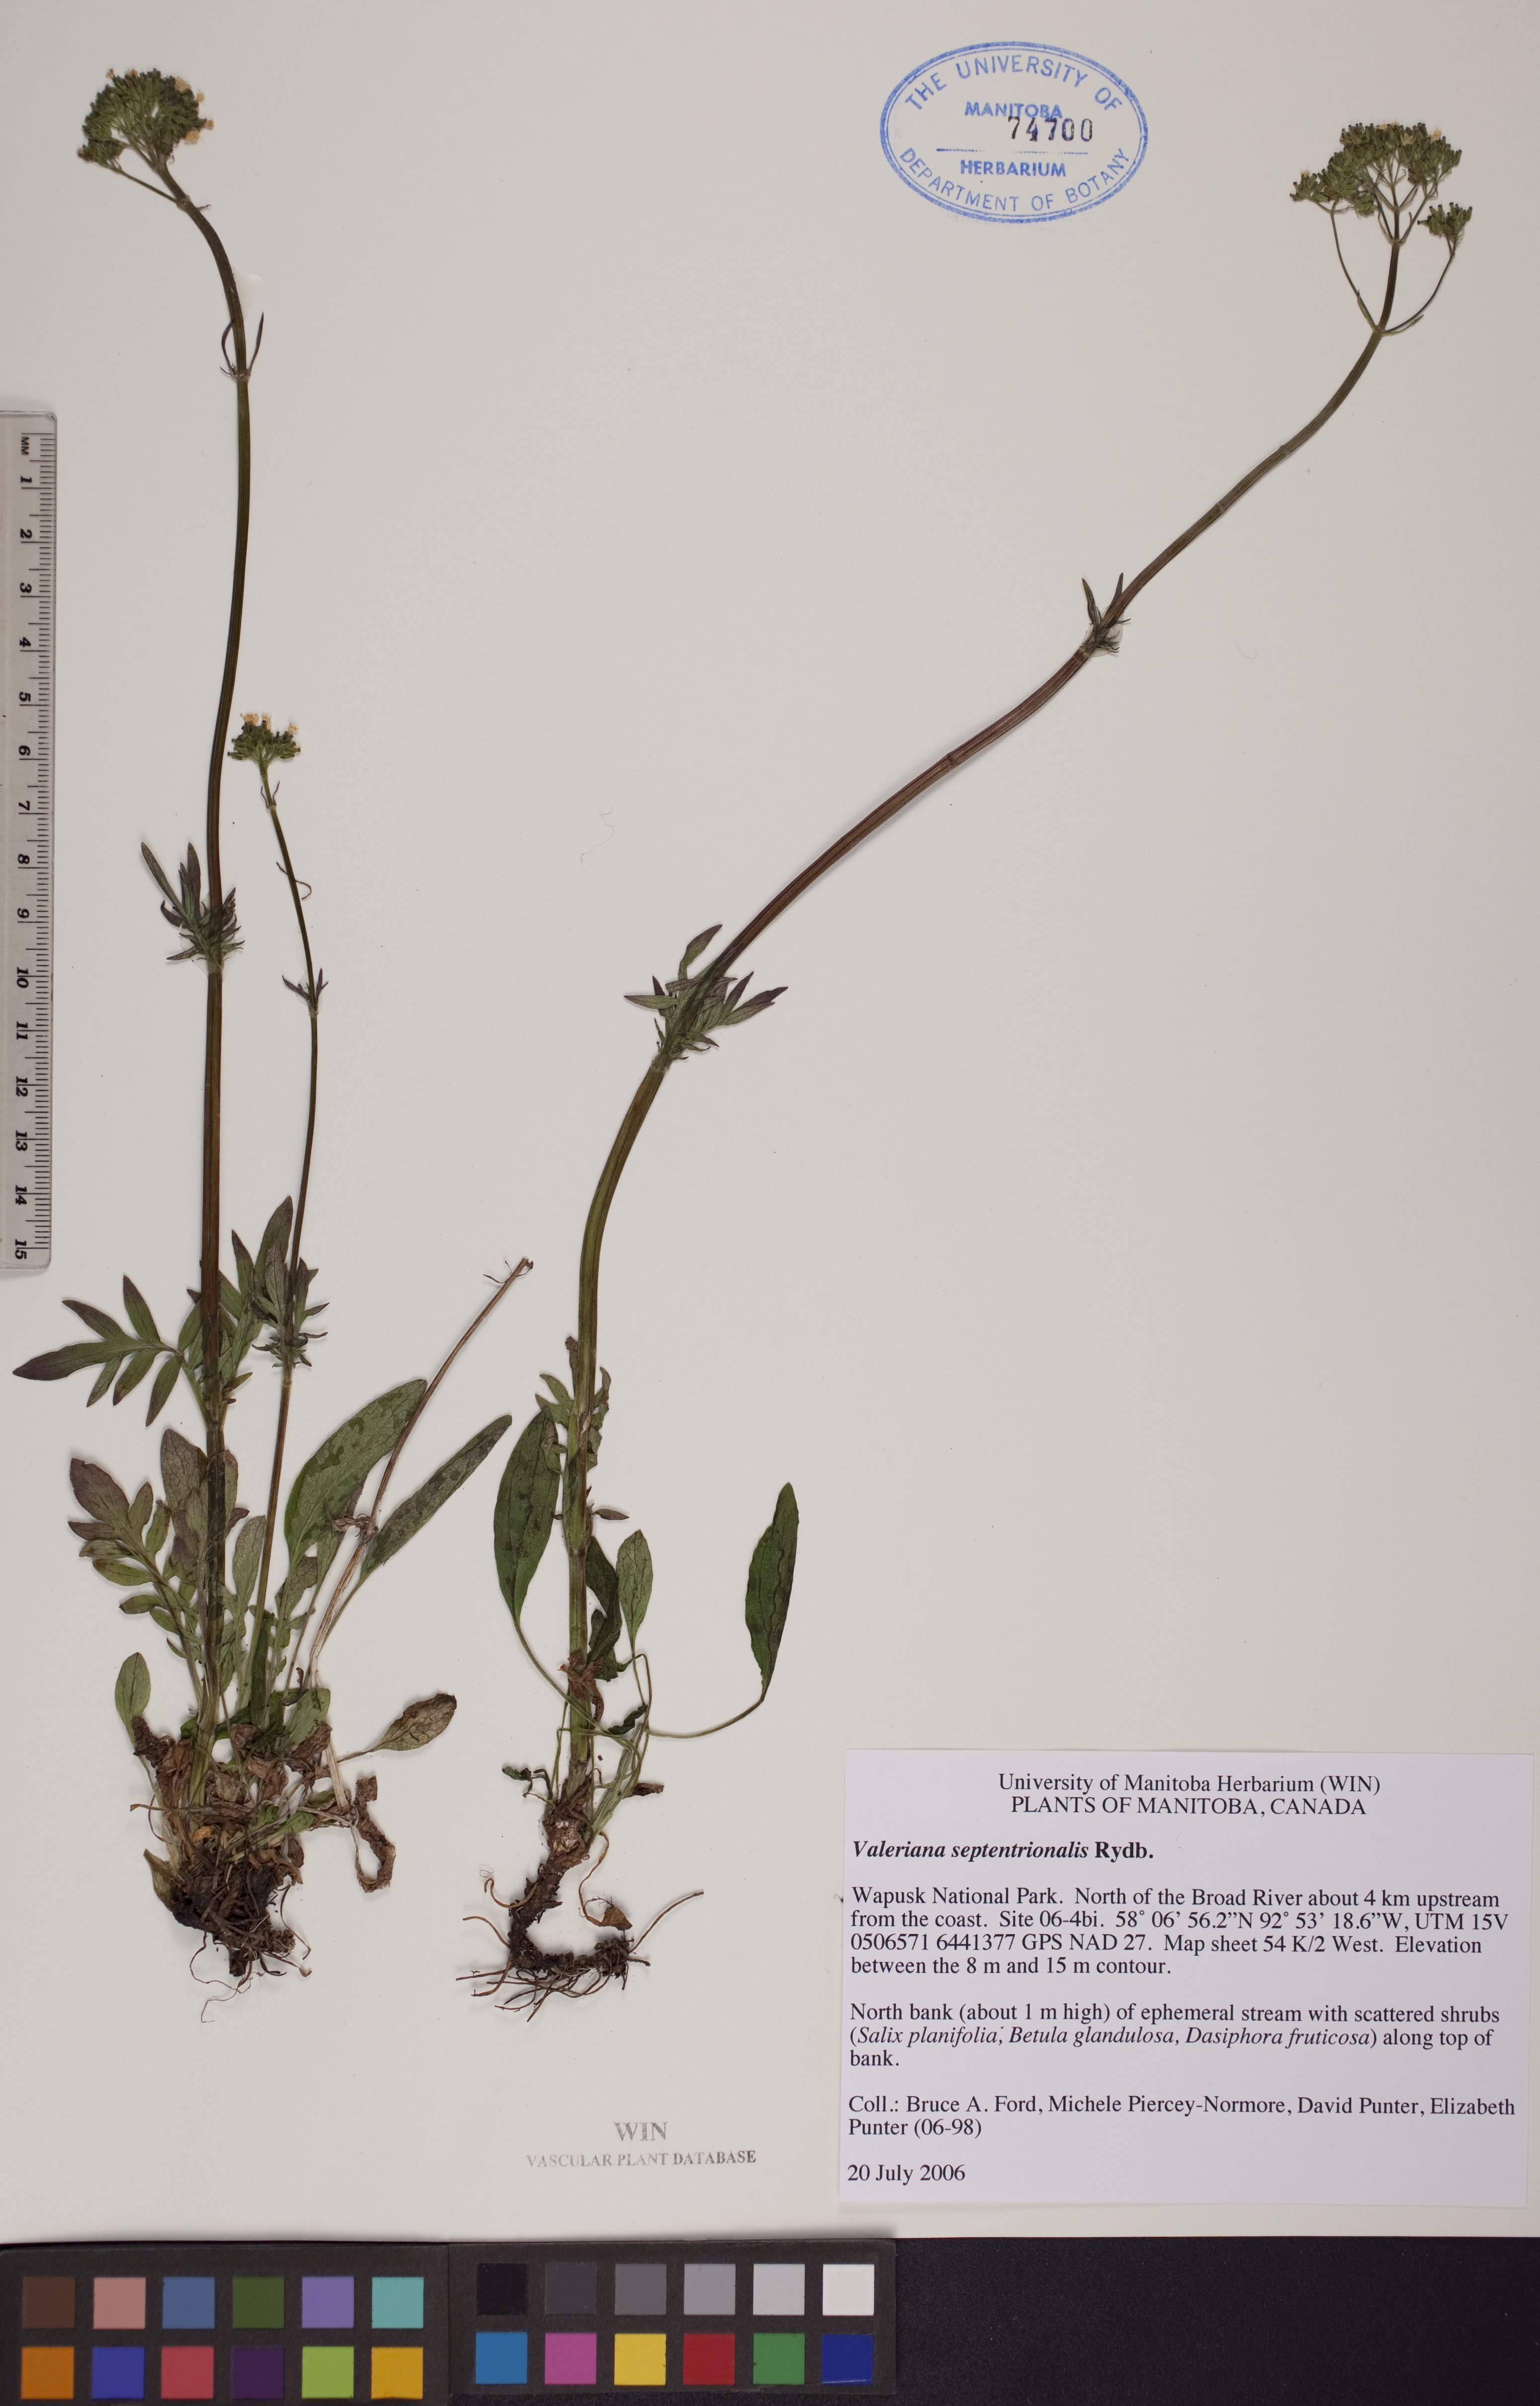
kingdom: Plantae
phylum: Tracheophyta
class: Magnoliopsida
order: Dipsacales
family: Caprifoliaceae
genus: Valeriana
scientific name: Valeriana dioica
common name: Marsh valerian
